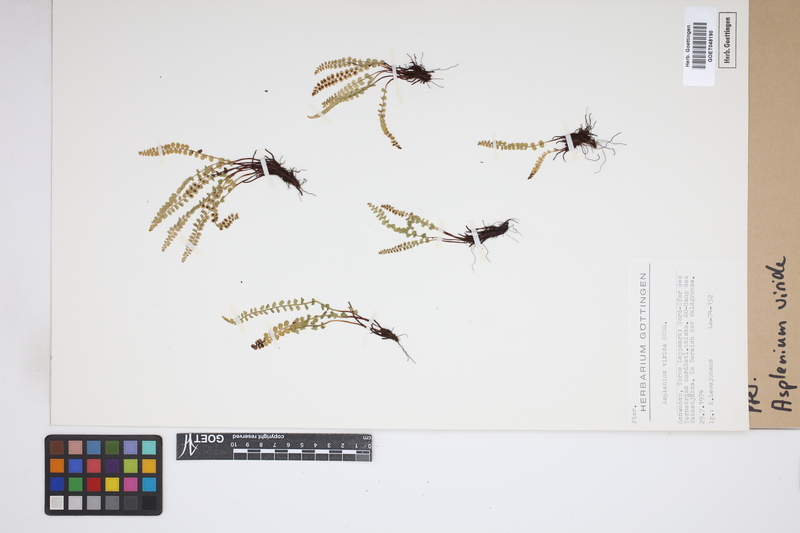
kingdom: Plantae
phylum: Tracheophyta
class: Polypodiopsida
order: Polypodiales
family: Aspleniaceae
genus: Asplenium
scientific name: Asplenium viride
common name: Green spleenwort
